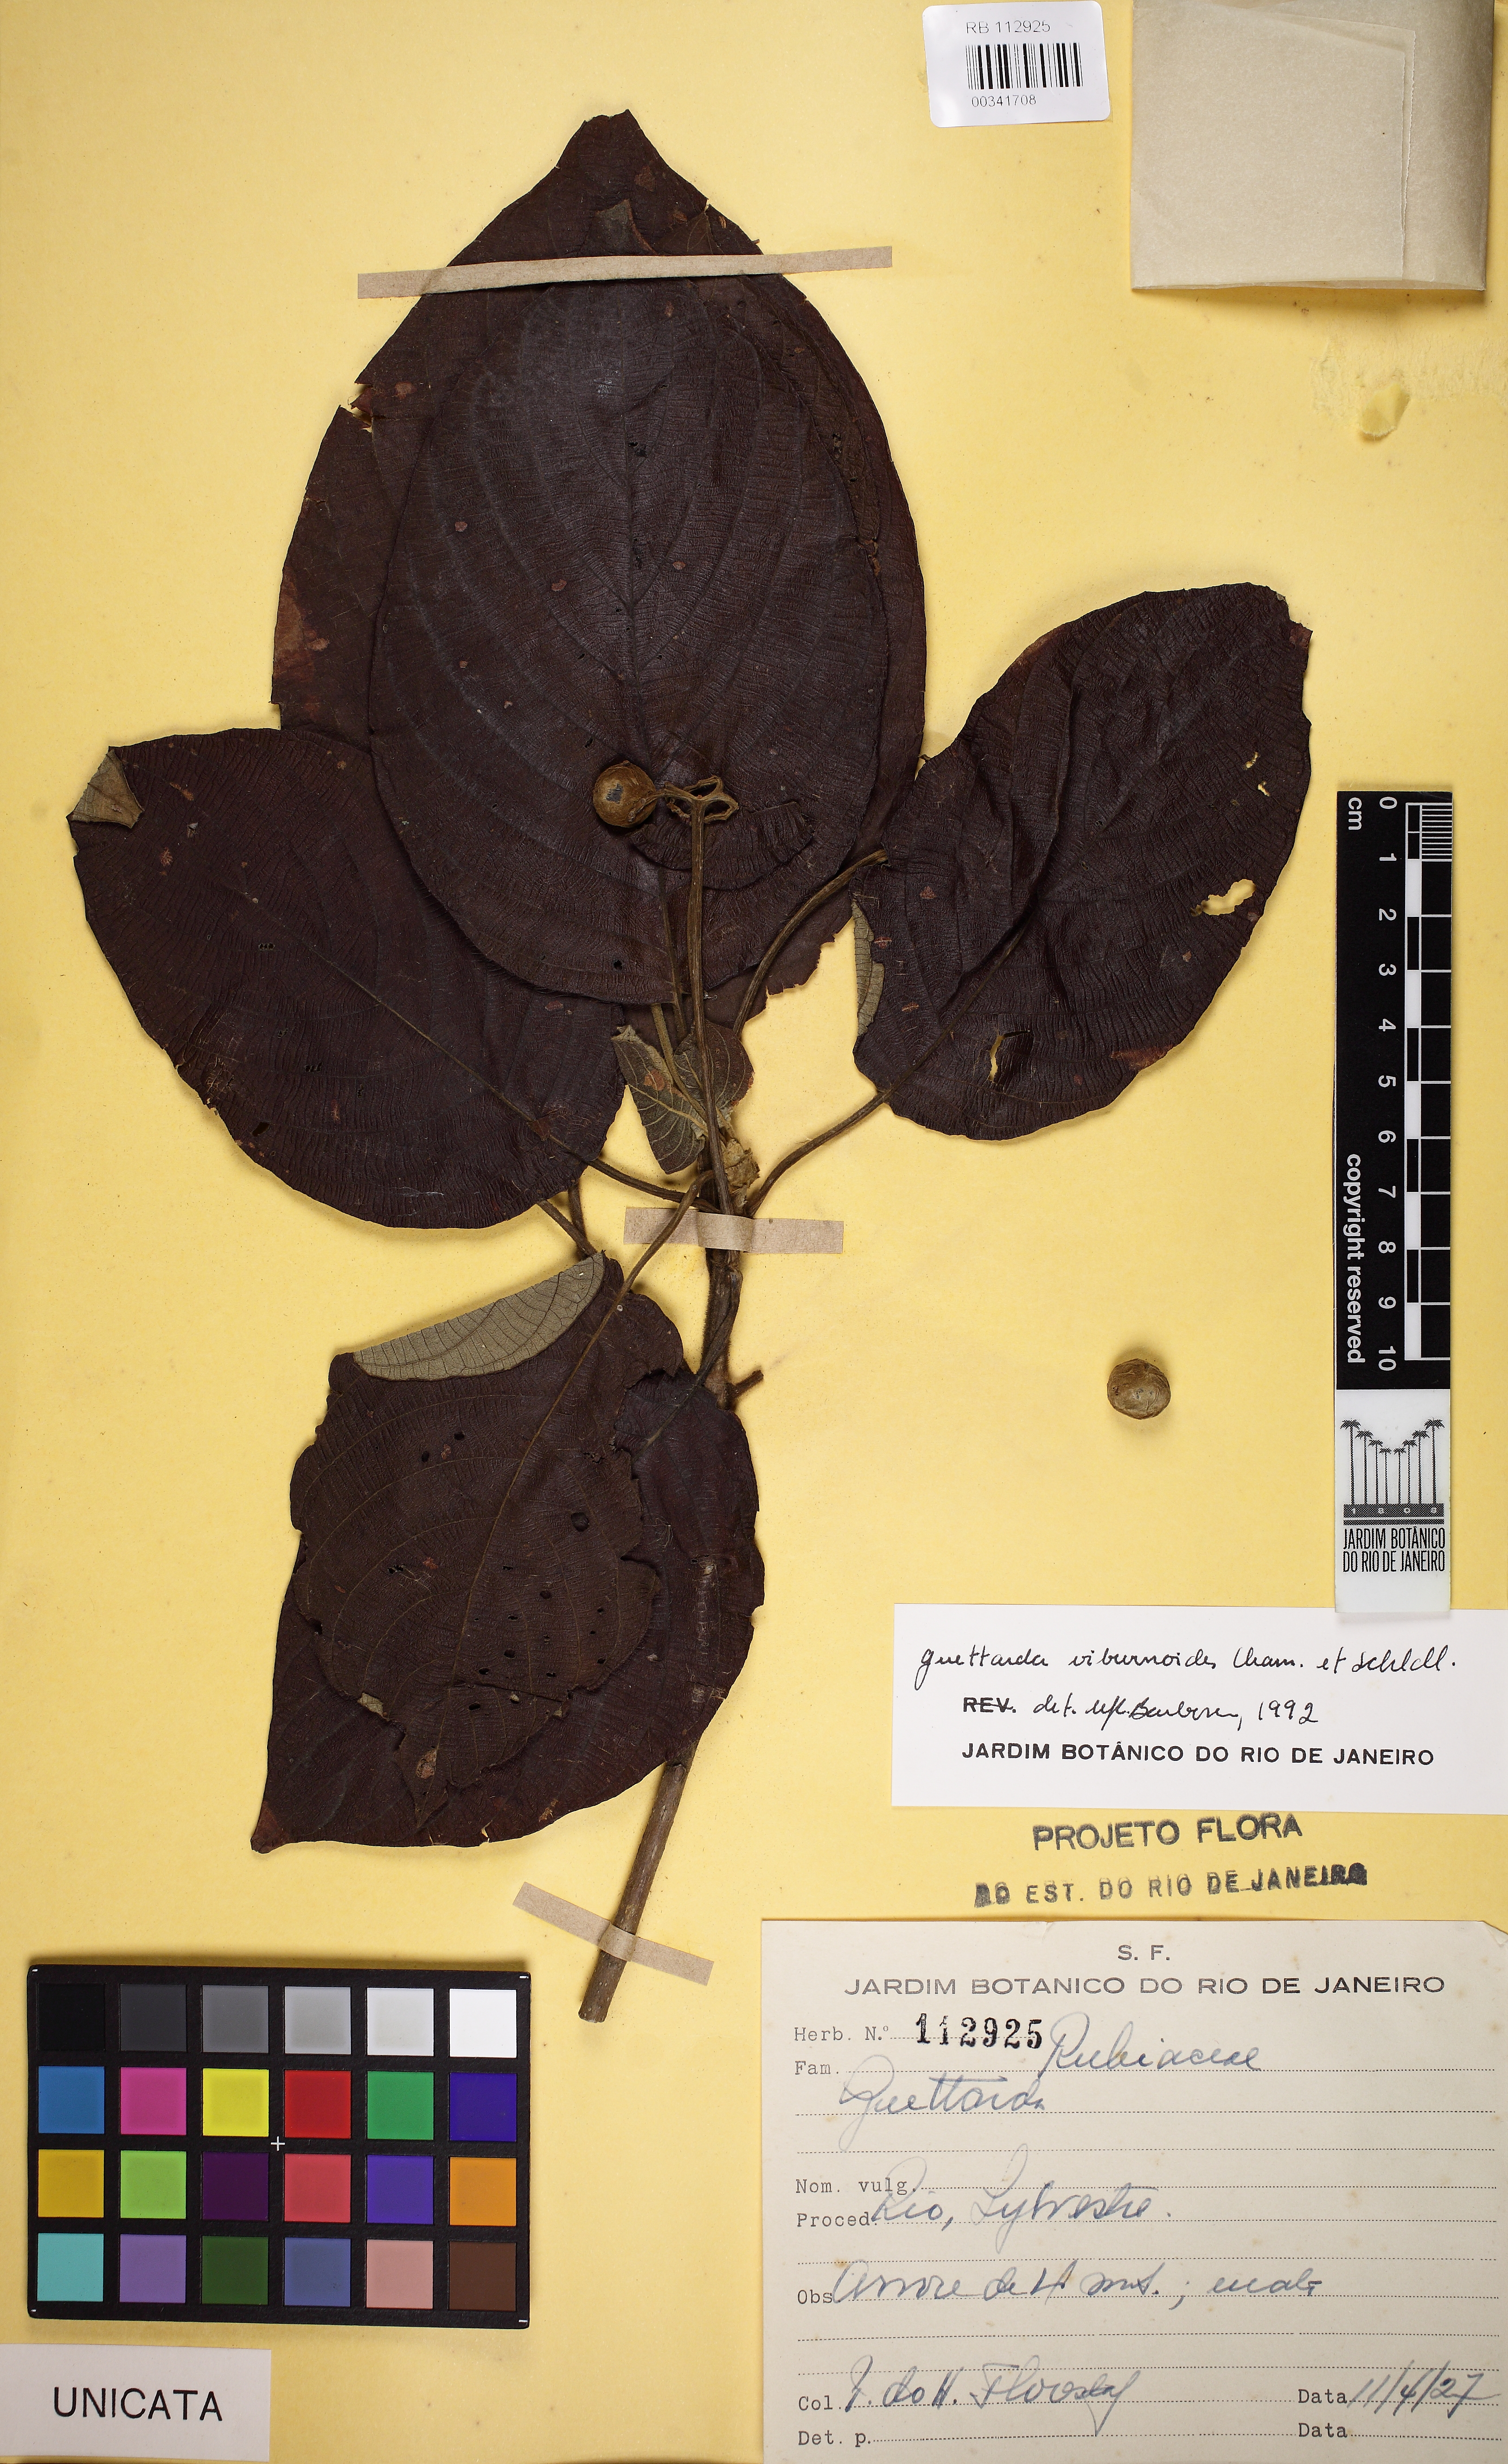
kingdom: Plantae
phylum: Tracheophyta
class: Magnoliopsida
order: Gentianales
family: Rubiaceae
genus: Guettarda
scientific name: Guettarda viburnoides
